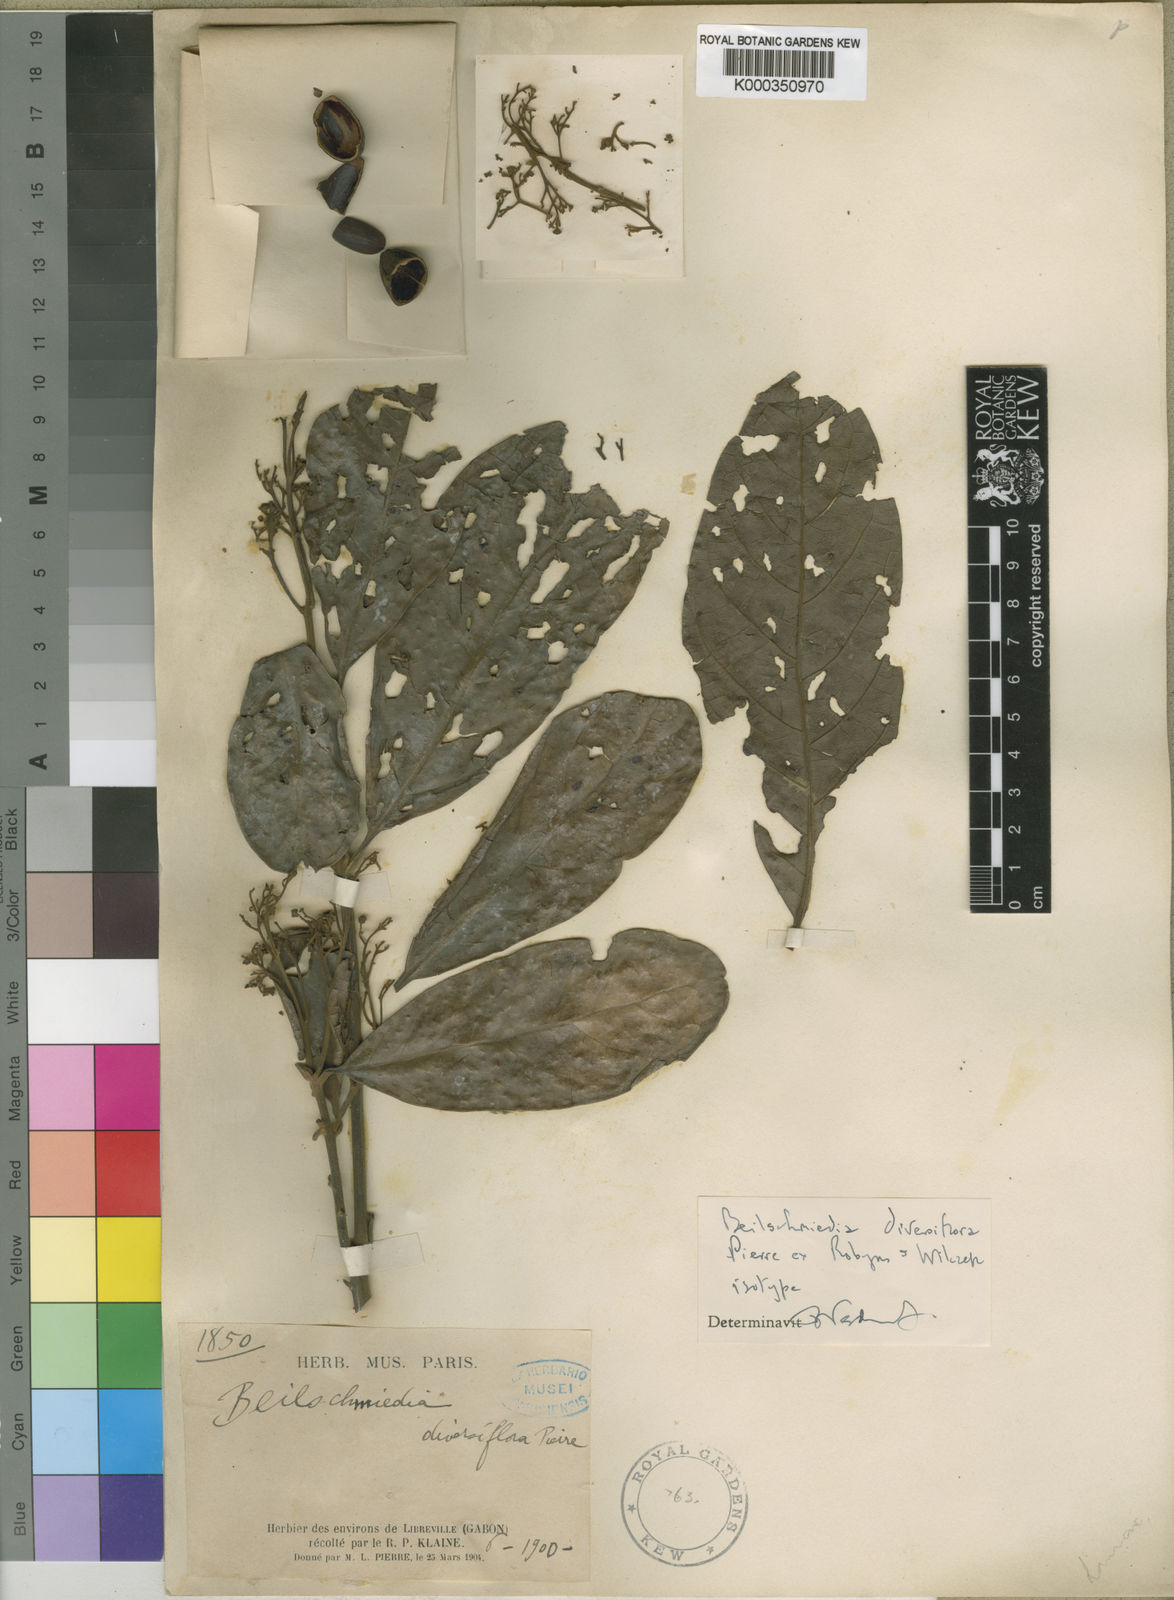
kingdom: Plantae
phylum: Tracheophyta
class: Magnoliopsida
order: Laurales
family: Lauraceae
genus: Beilschmiedia
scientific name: Beilschmiedia diversiflora
